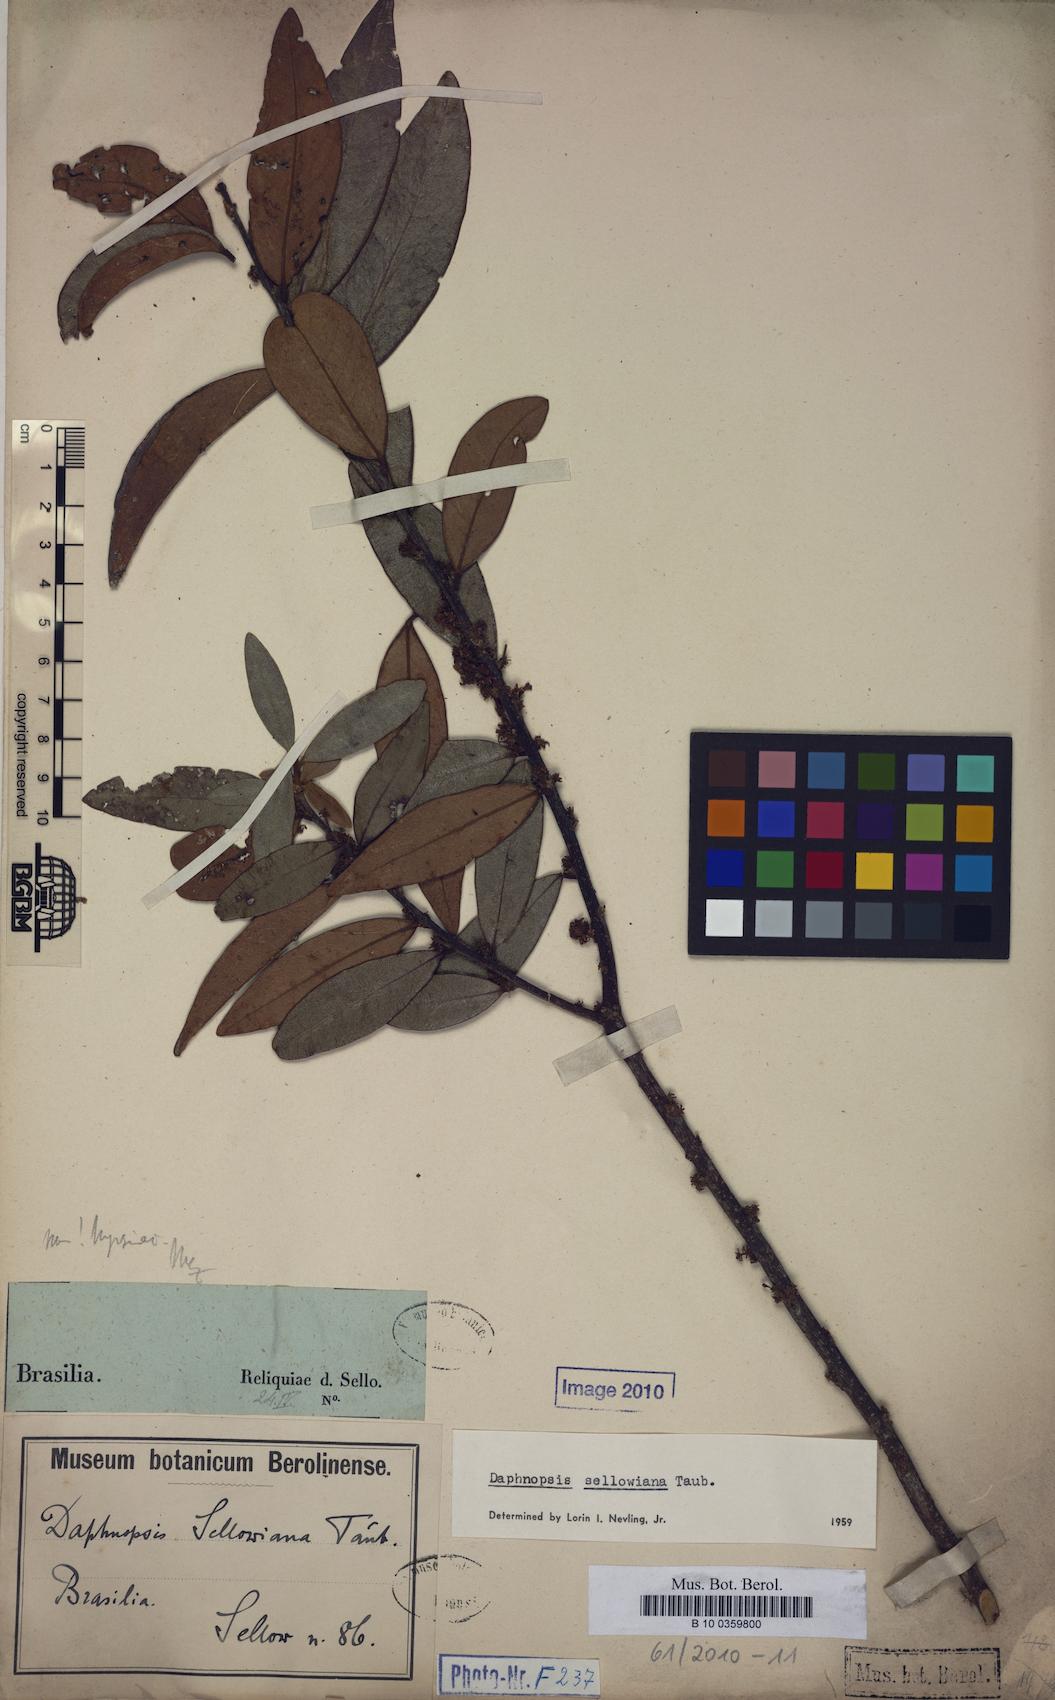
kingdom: Plantae
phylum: Tracheophyta
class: Magnoliopsida
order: Malvales
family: Thymelaeaceae
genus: Daphnopsis
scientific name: Daphnopsis sellowiana
